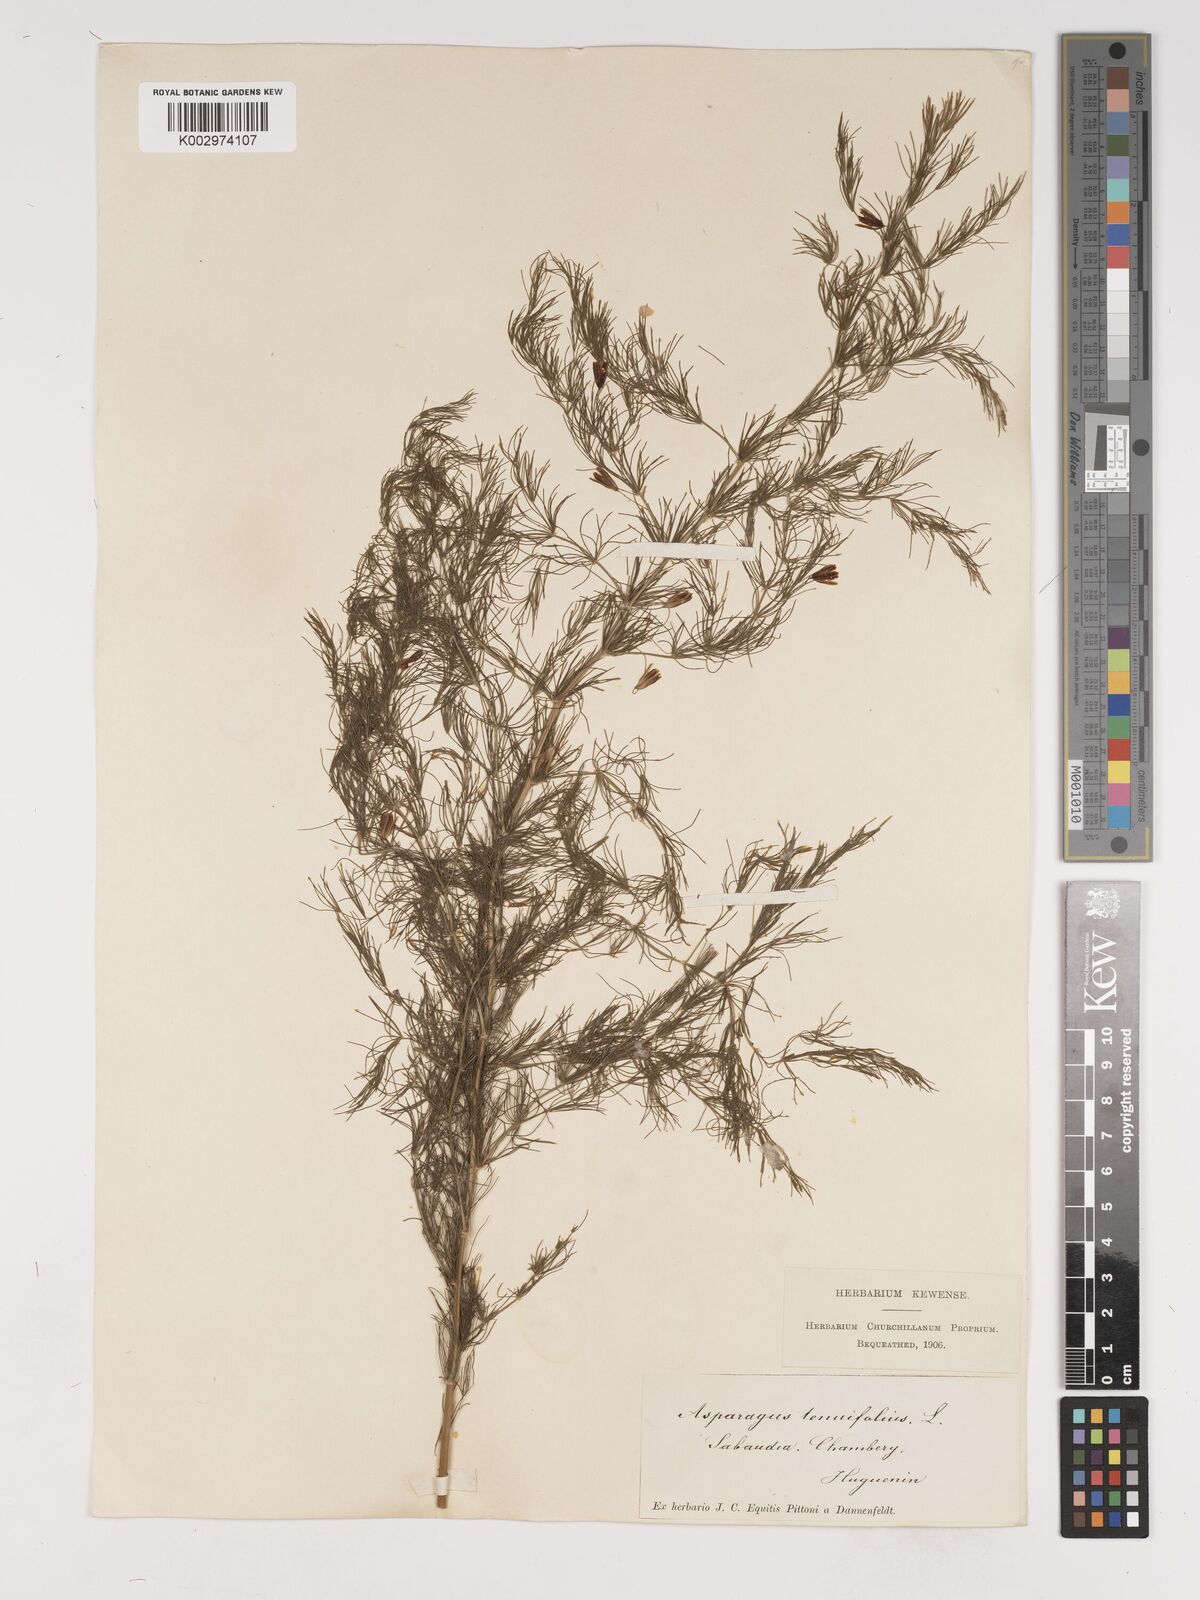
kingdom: Plantae
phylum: Tracheophyta
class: Liliopsida
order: Asparagales
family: Asparagaceae
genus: Asparagus
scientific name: Asparagus tenuifolius
